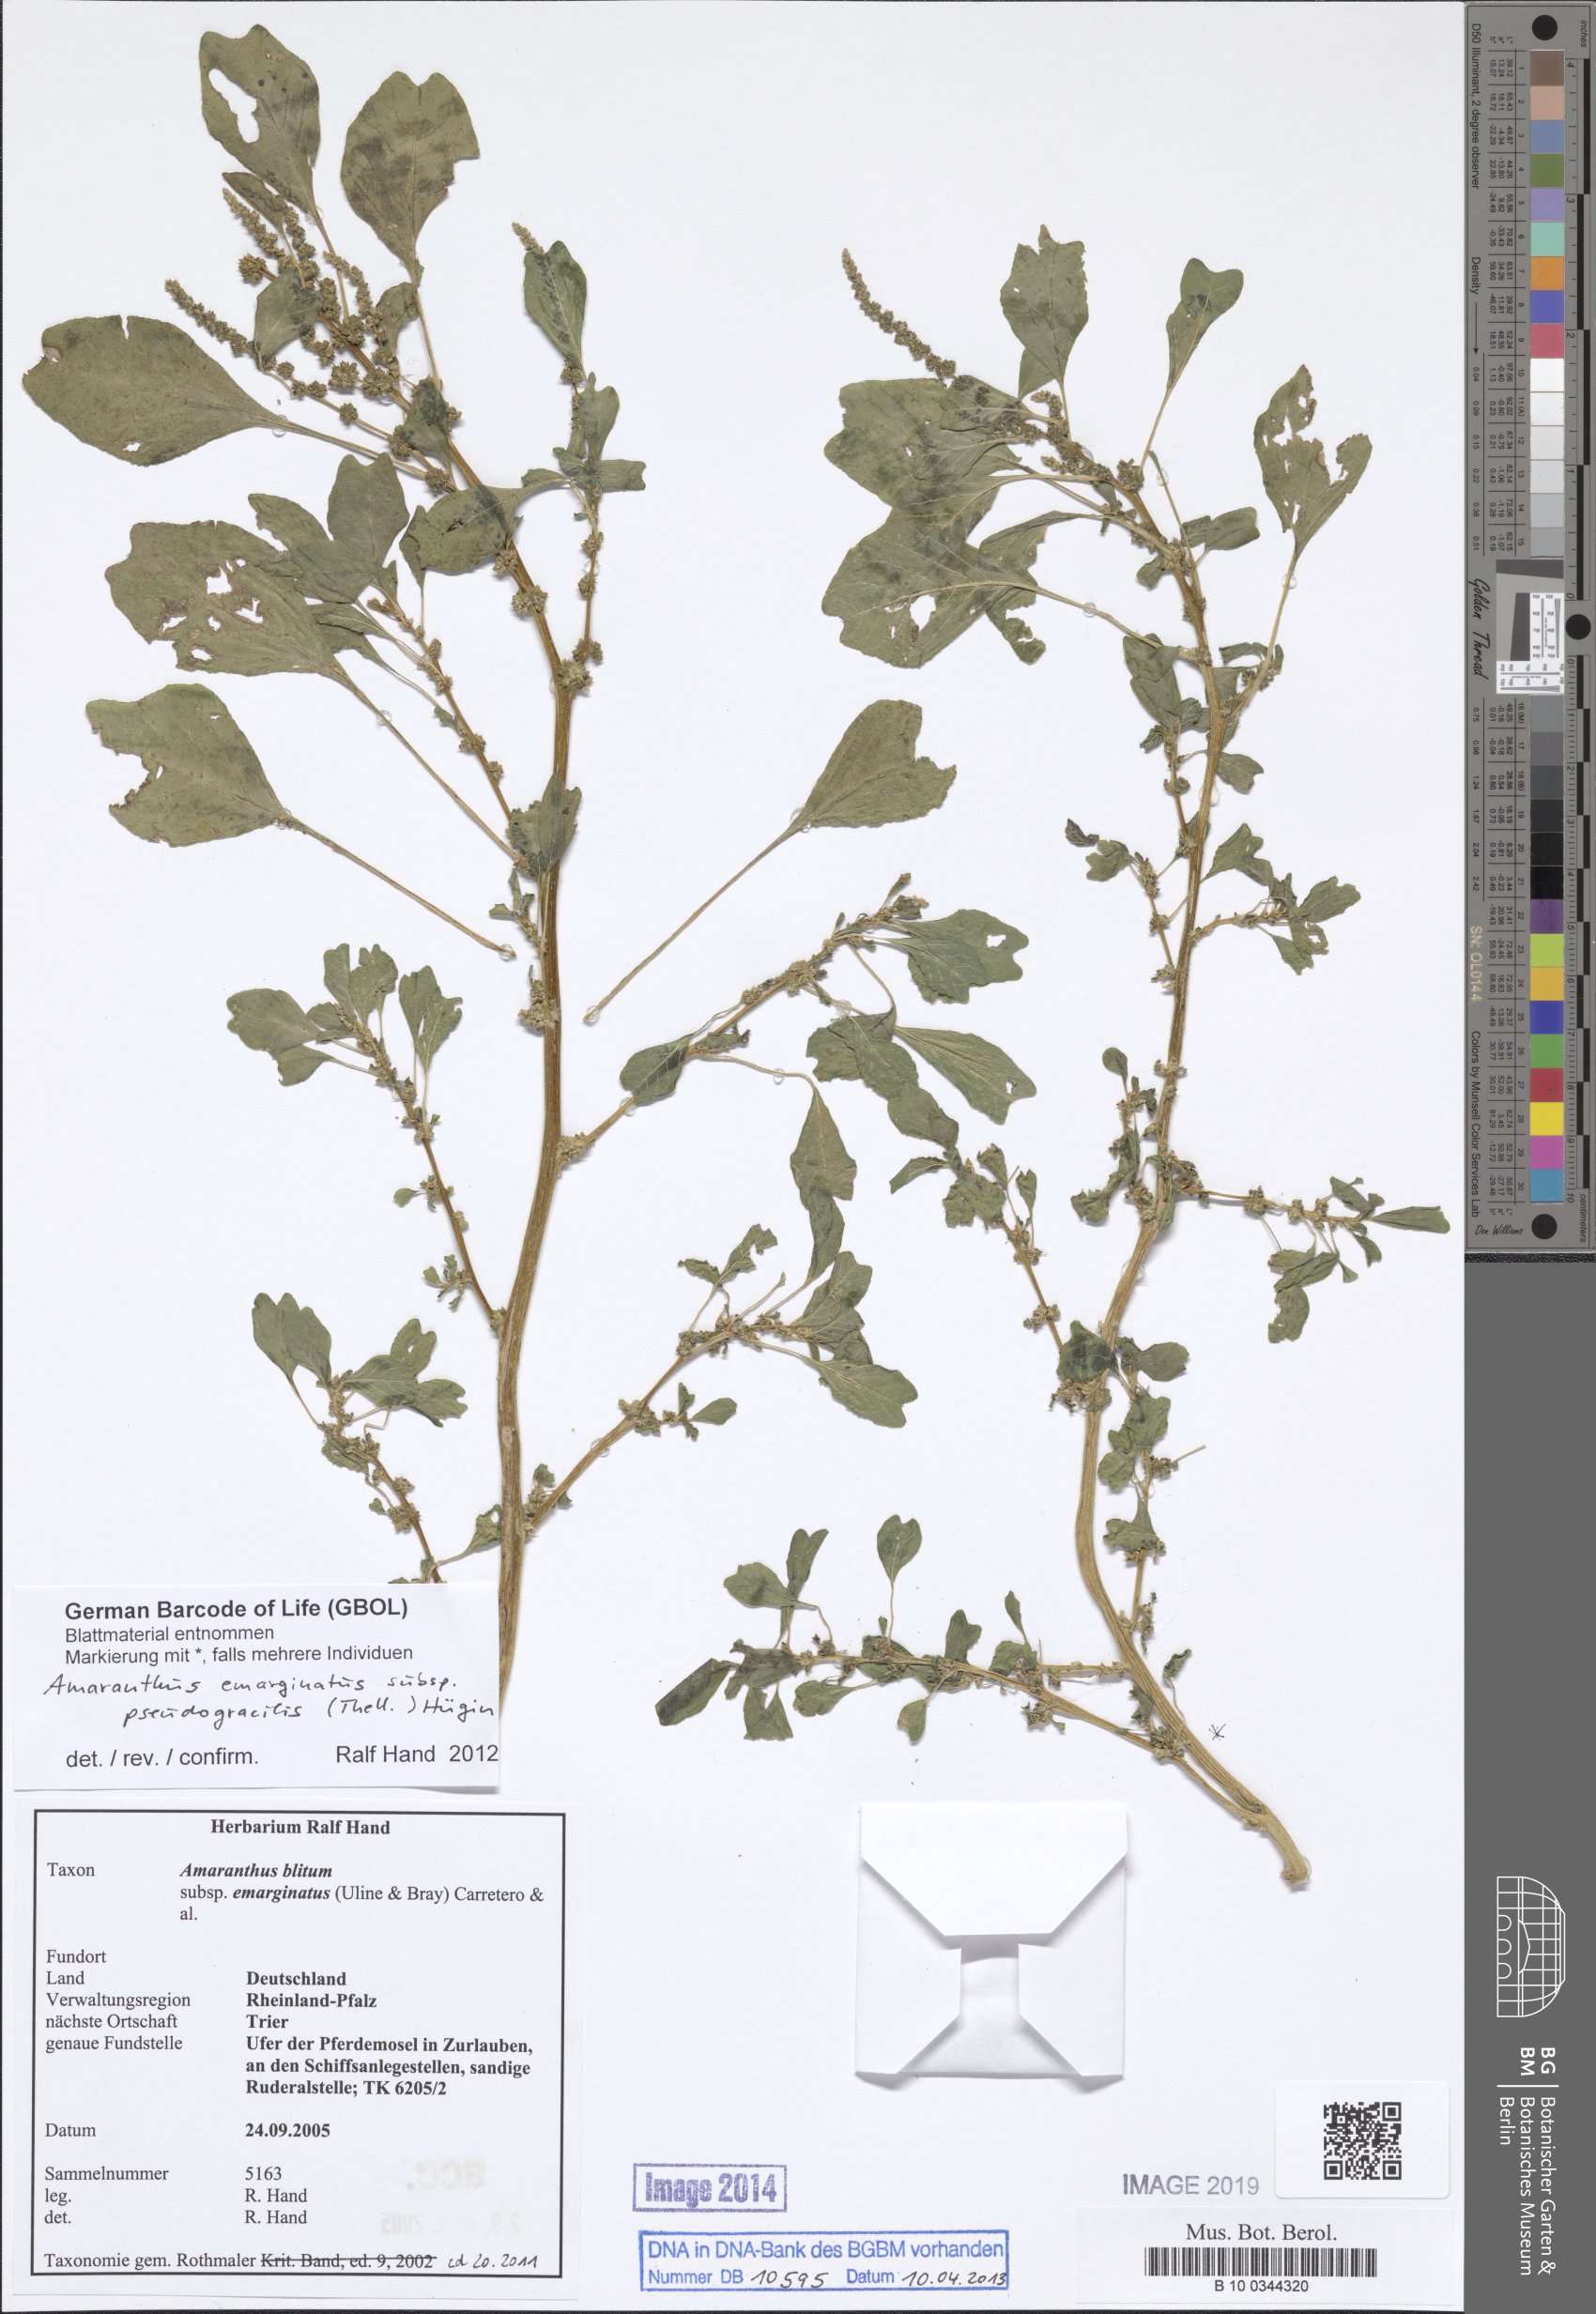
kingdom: Plantae
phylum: Tracheophyta
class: Magnoliopsida
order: Caryophyllales
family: Amaranthaceae
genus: Amaranthus
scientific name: Amaranthus emarginatus
